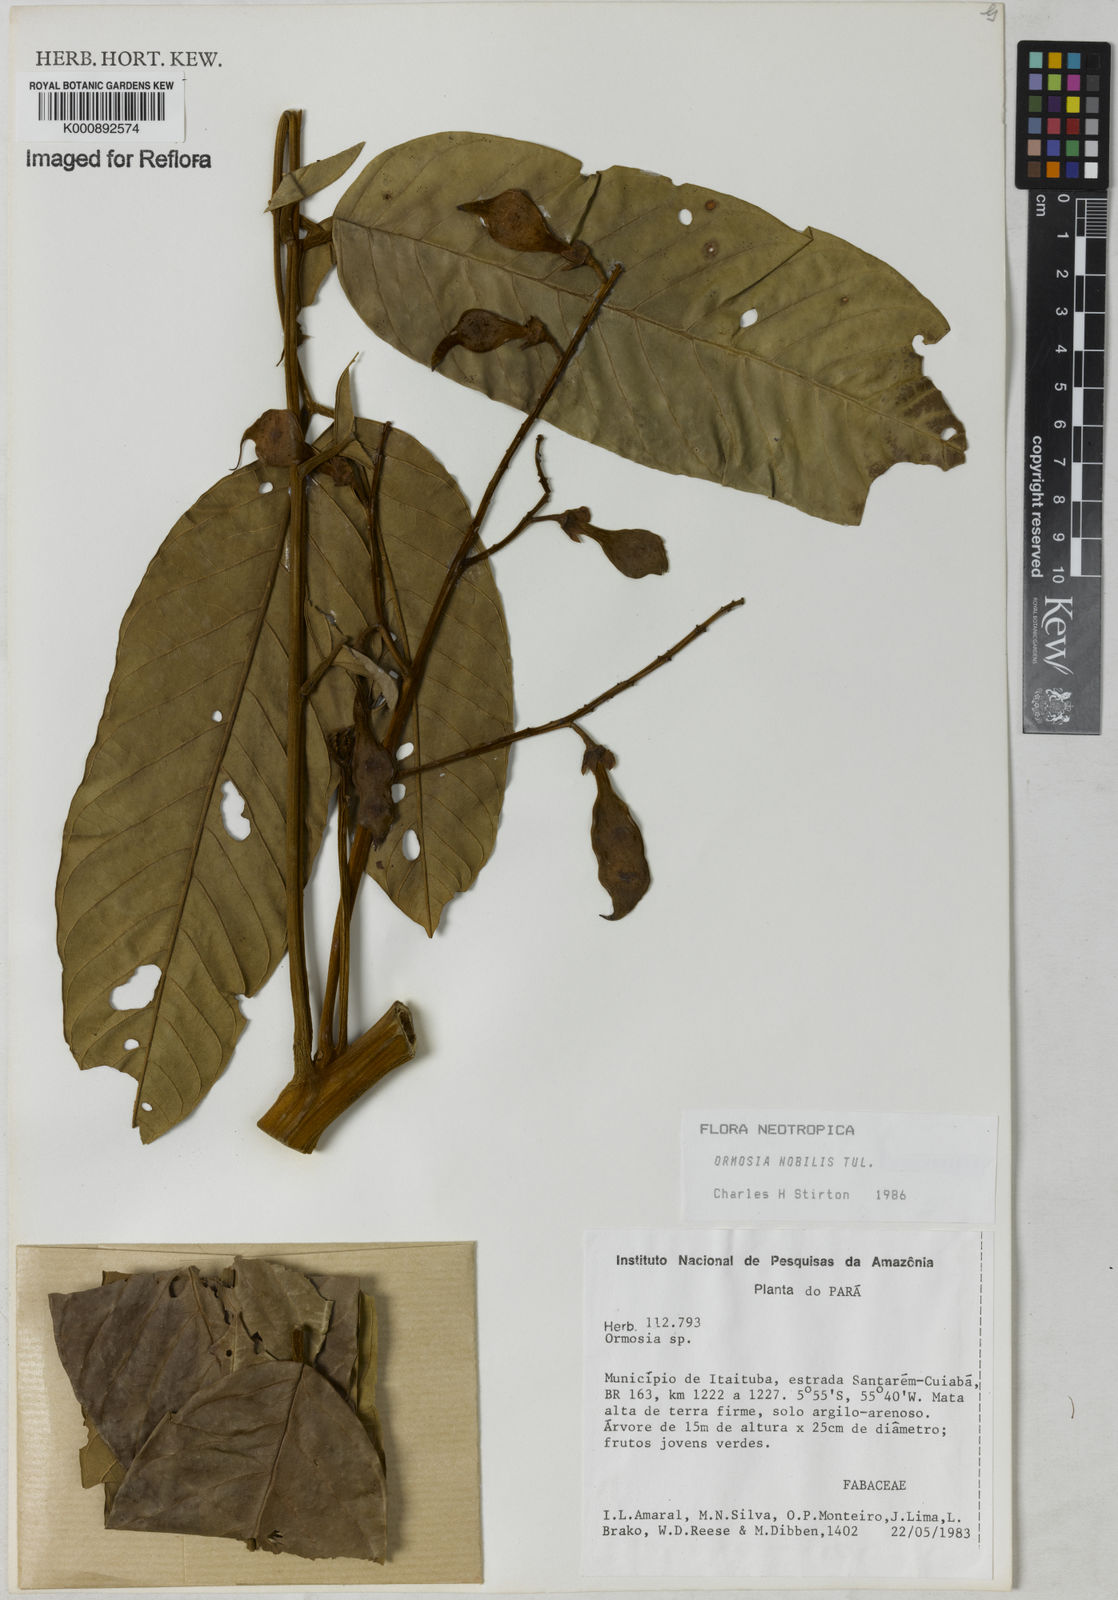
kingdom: Plantae
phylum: Tracheophyta
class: Magnoliopsida
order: Fabales
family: Fabaceae
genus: Ormosia
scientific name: Ormosia santaremnensis
